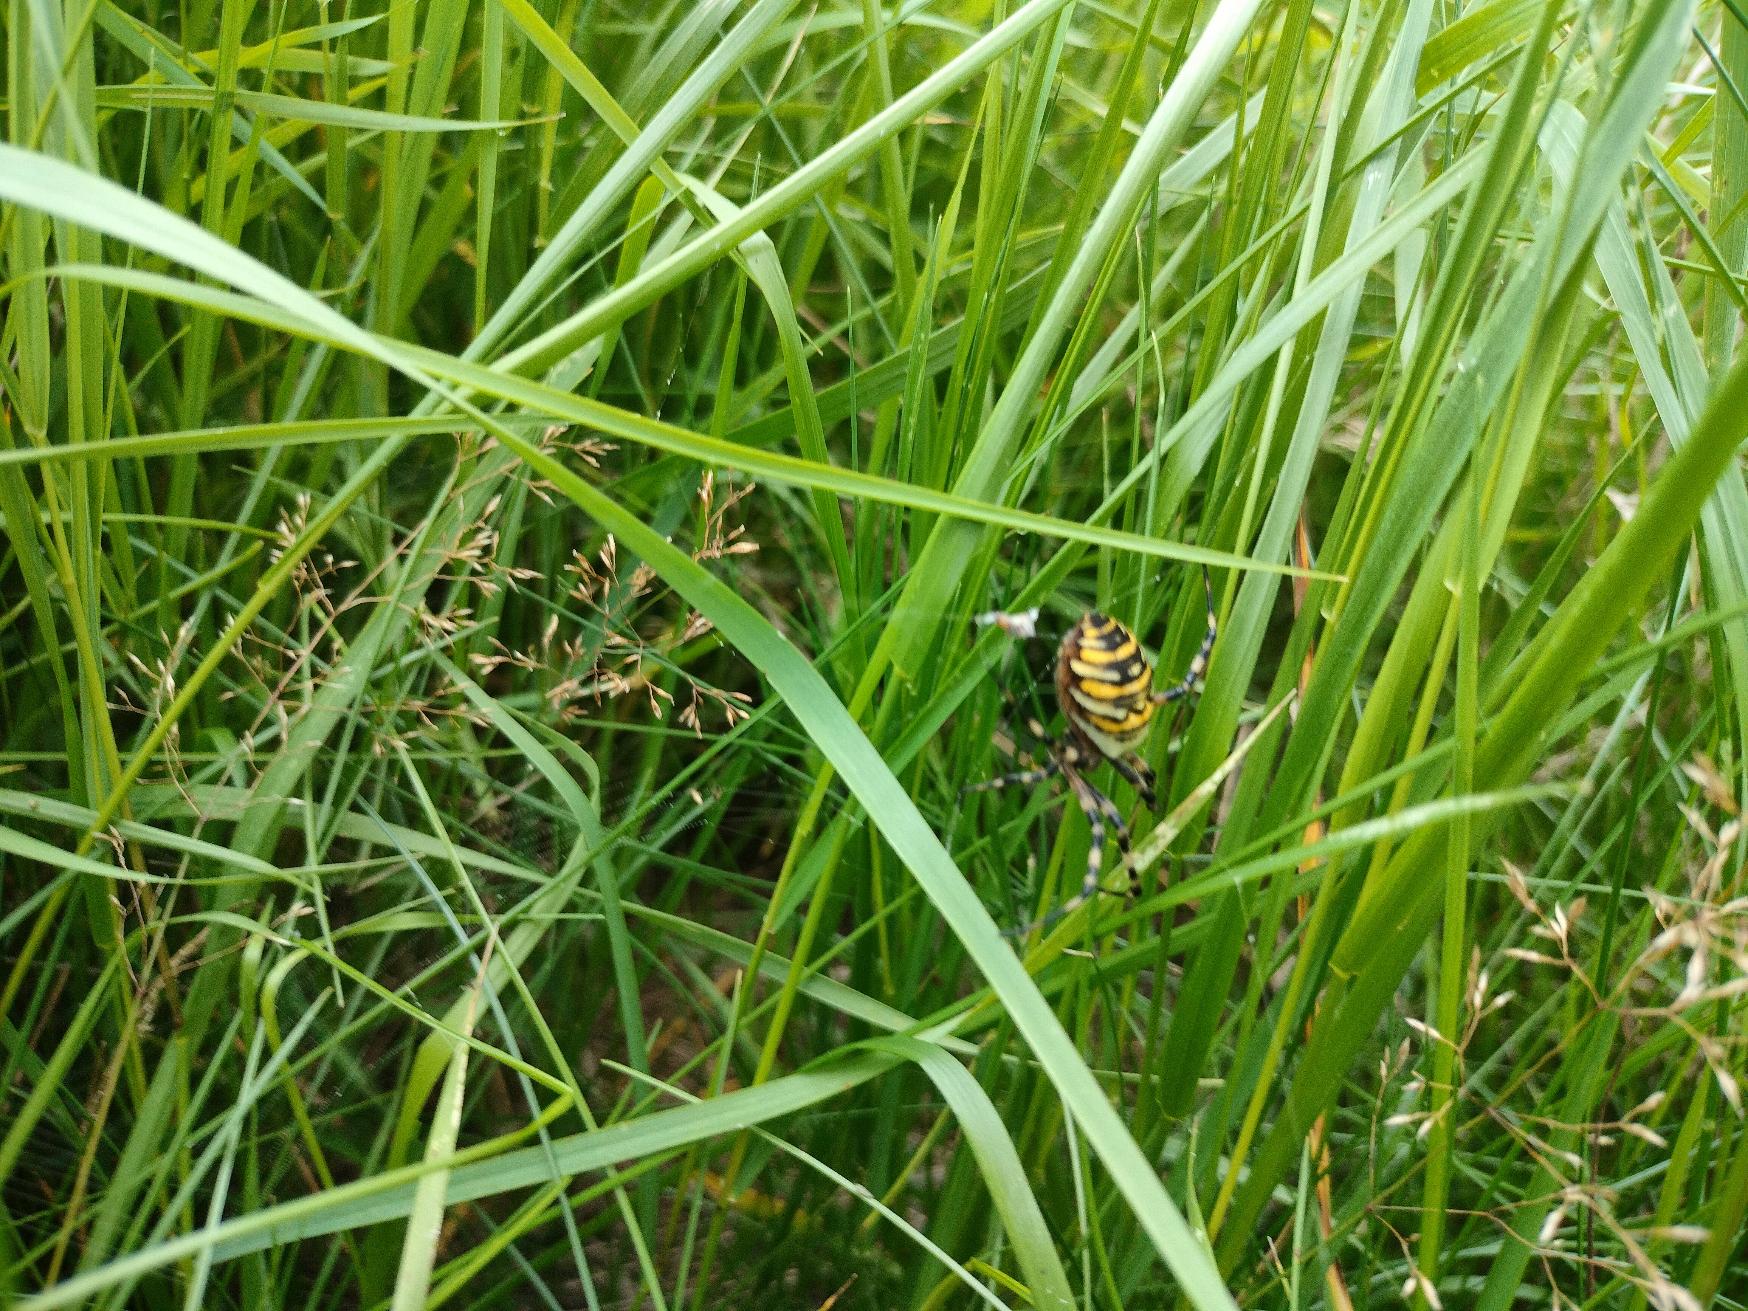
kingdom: Animalia
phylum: Arthropoda
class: Arachnida
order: Araneae
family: Araneidae
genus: Argiope
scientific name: Argiope bruennichi
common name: Hvepseedderkop
